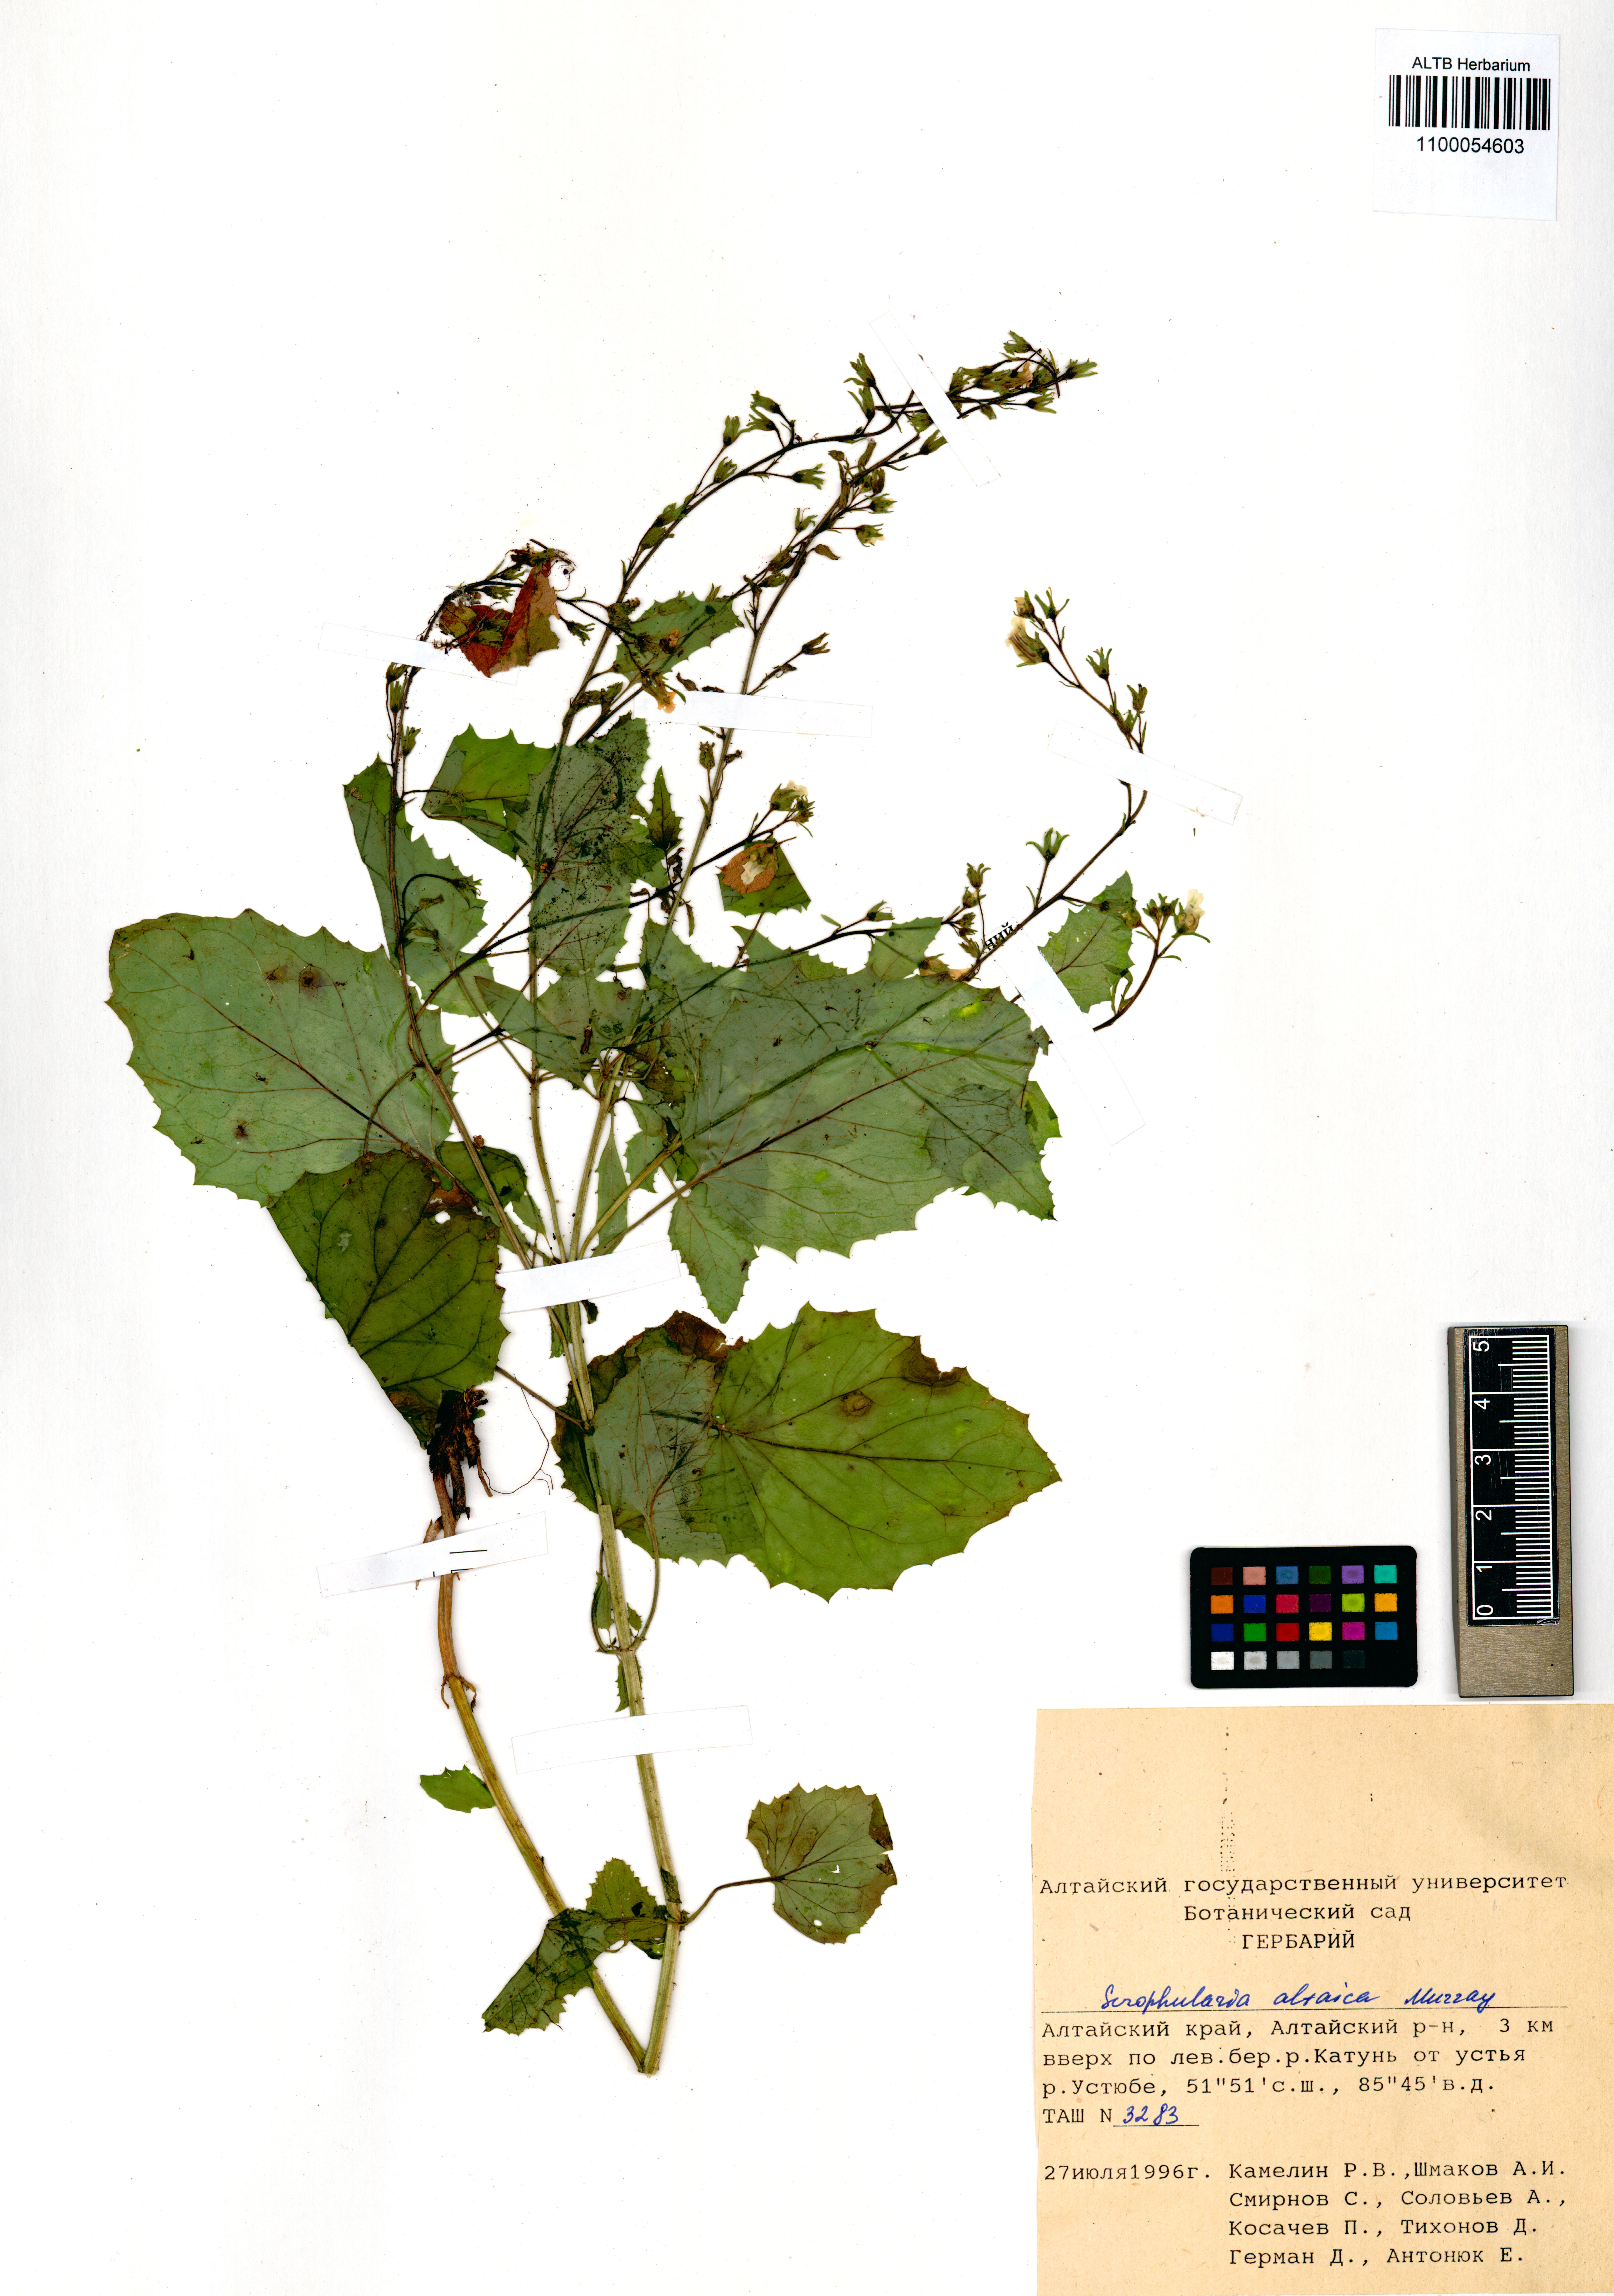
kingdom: Plantae
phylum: Tracheophyta
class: Magnoliopsida
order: Lamiales
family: Scrophulariaceae
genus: Scrophularia
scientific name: Scrophularia altaica
